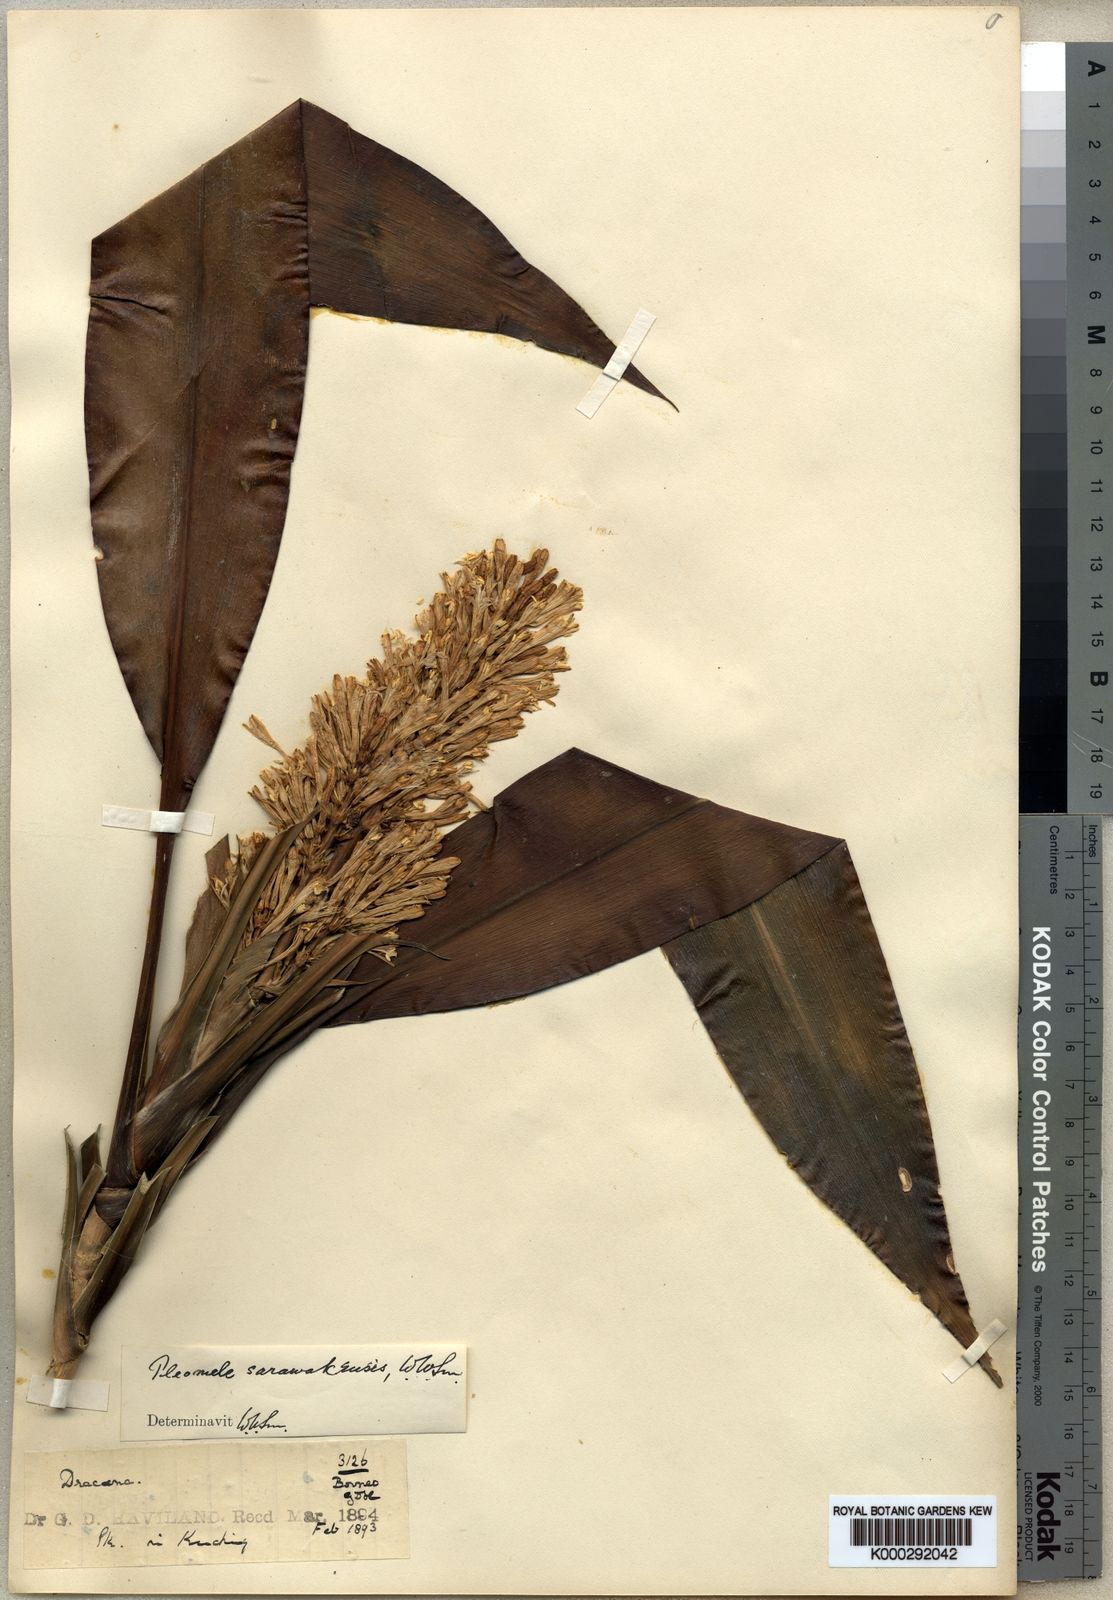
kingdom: Plantae
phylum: Tracheophyta
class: Liliopsida
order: Asparagales
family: Asparagaceae
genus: Dracaena
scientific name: Dracaena sarawakensis
